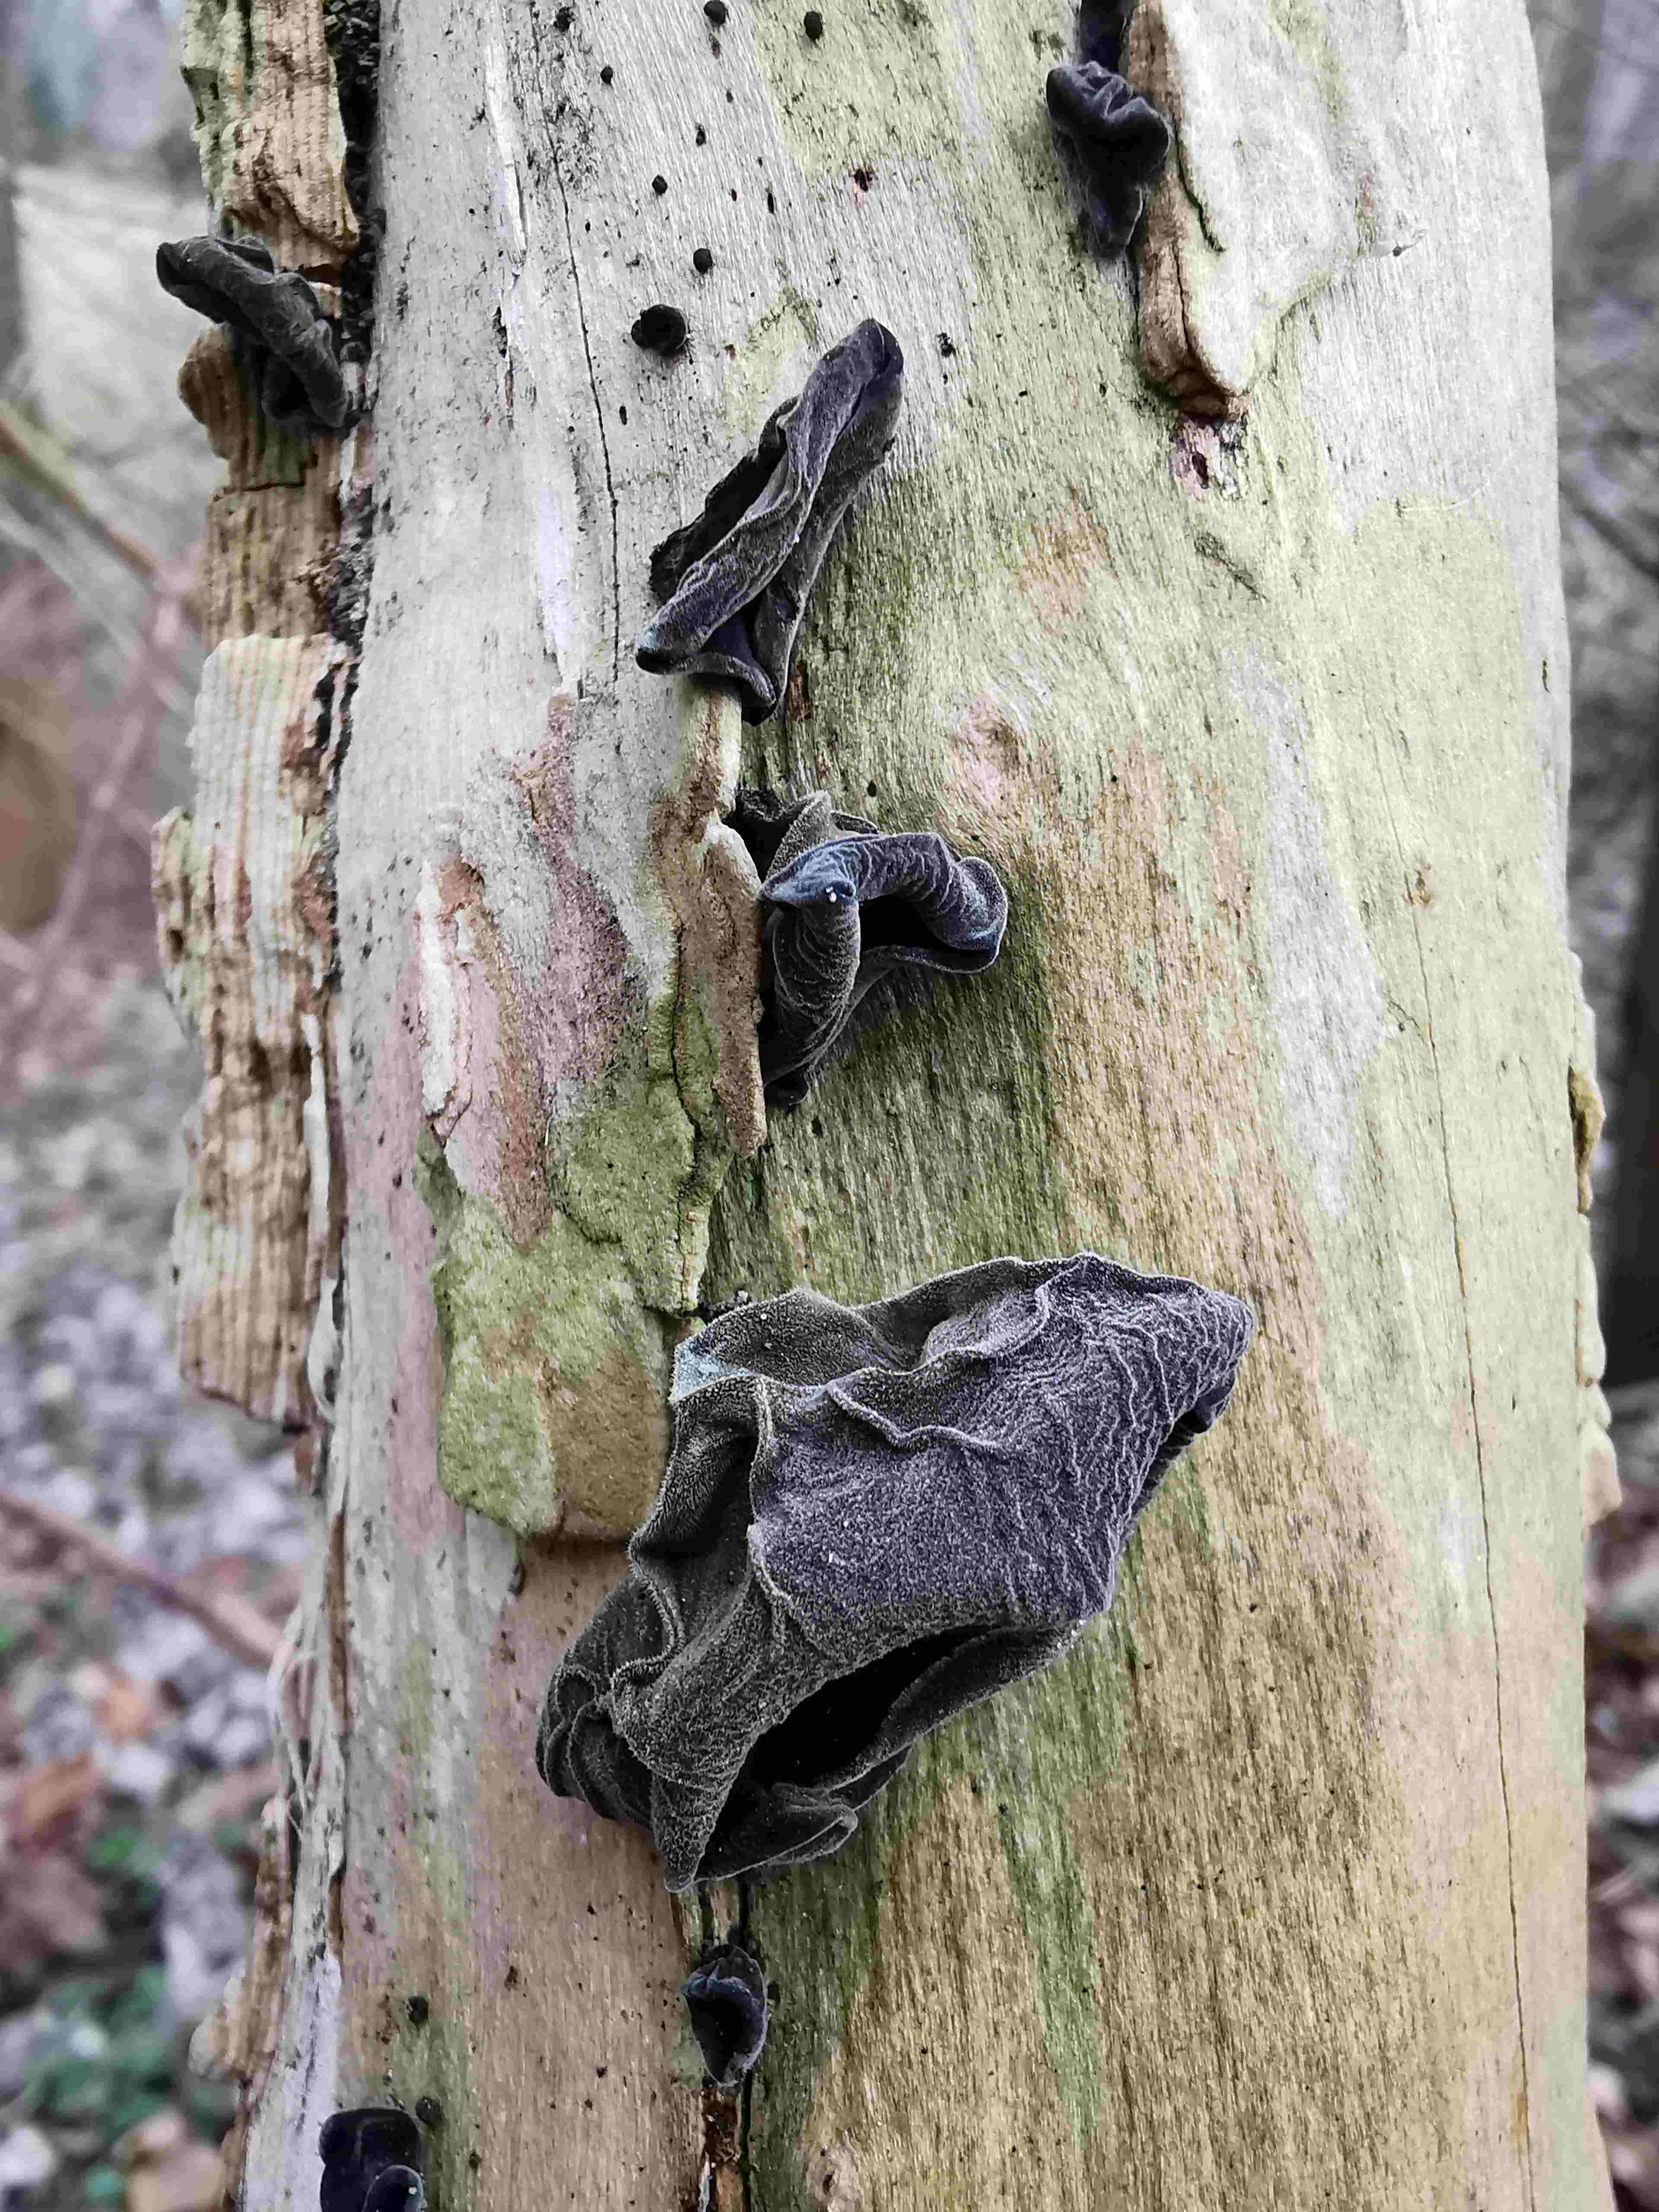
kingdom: Fungi
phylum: Basidiomycota
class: Agaricomycetes
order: Auriculariales
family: Auriculariaceae
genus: Auricularia
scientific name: Auricularia auricula-judae
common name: almindelig judasøre
